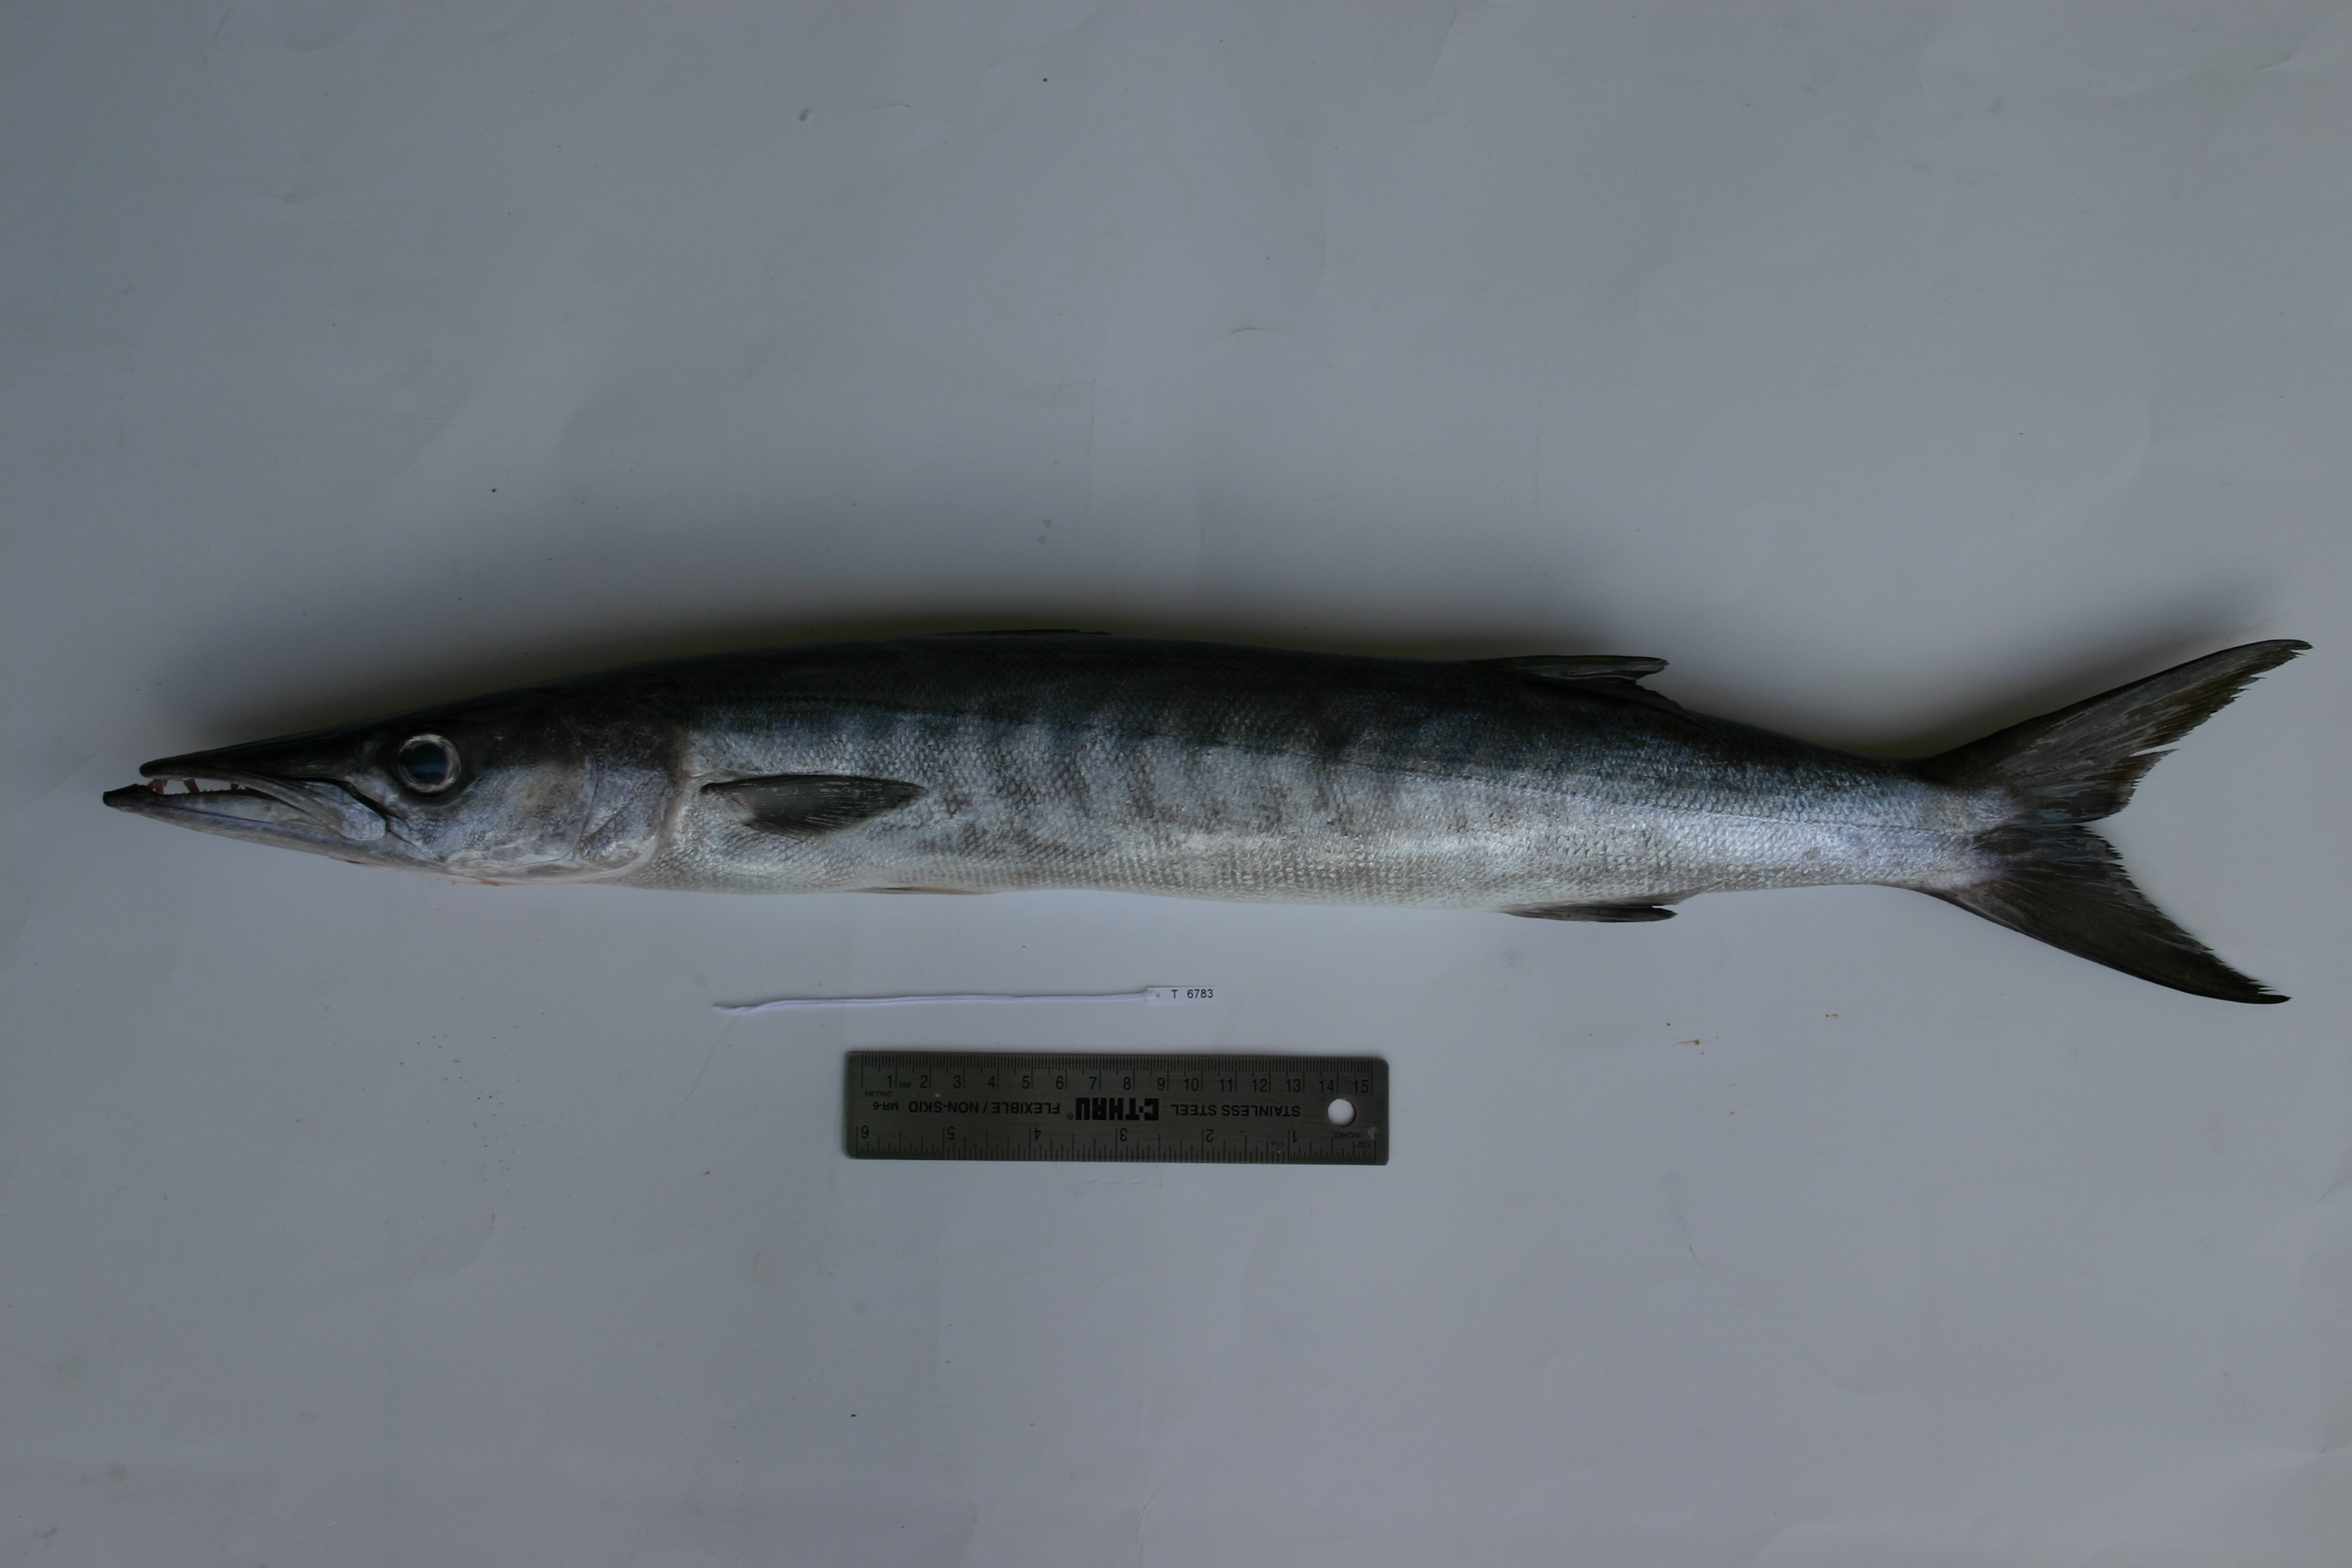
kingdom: Animalia
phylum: Chordata
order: Perciformes
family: Sphyraenidae
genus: Sphyraena
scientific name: Sphyraena putnamae
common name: Sawtooth barracuda
